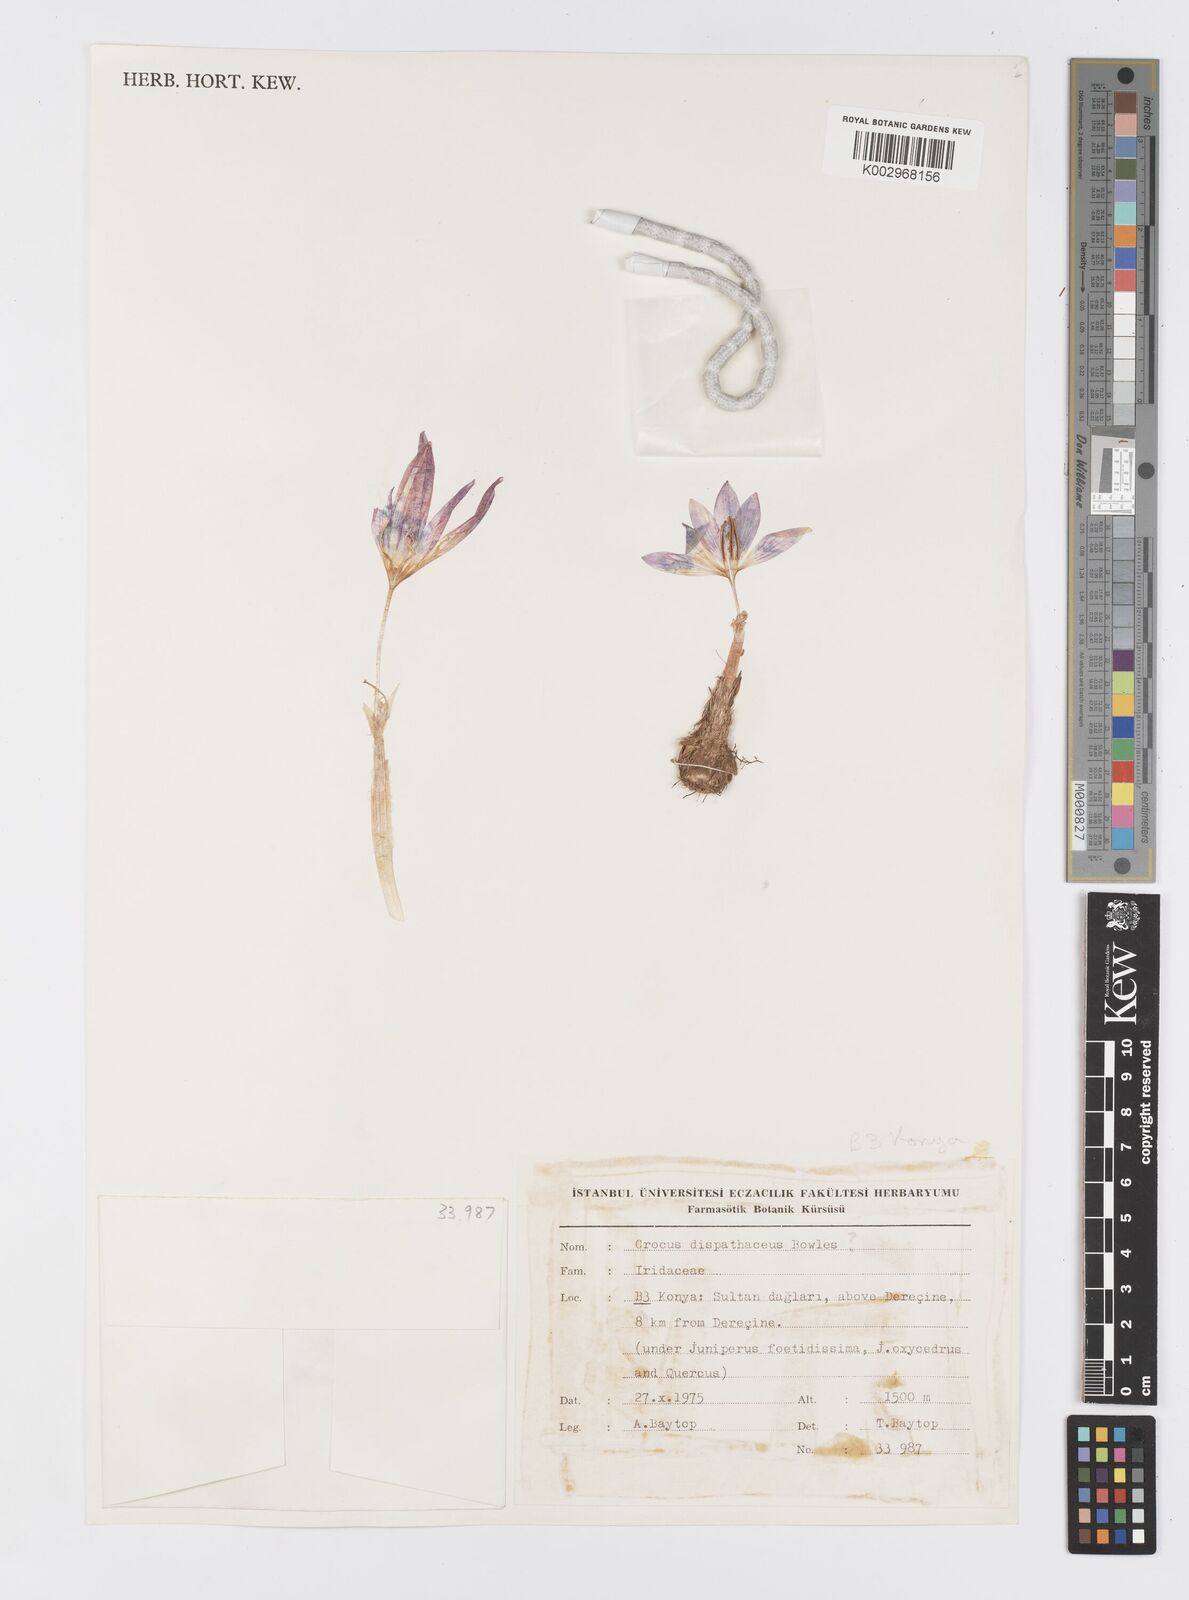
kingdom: Plantae
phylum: Tracheophyta
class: Liliopsida
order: Asparagales
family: Iridaceae
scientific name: Iridaceae
